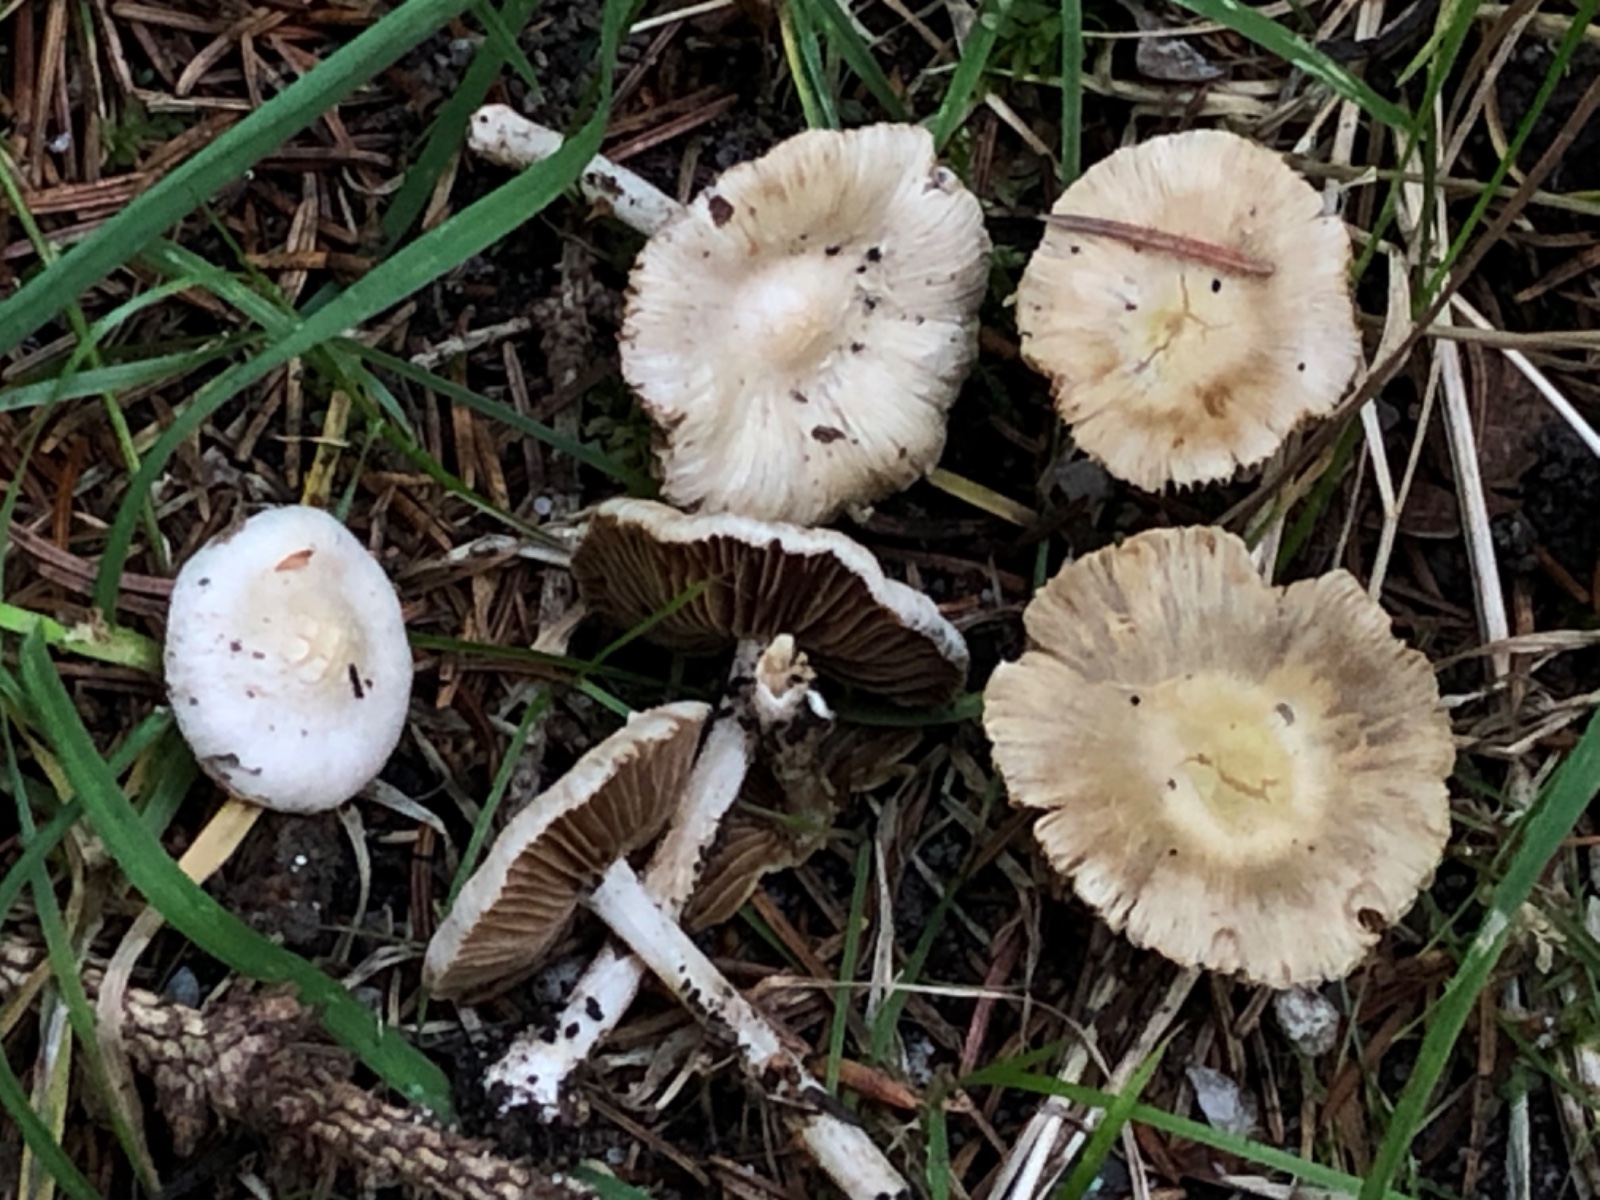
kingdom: Fungi
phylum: Basidiomycota
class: Agaricomycetes
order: Agaricales
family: Inocybaceae
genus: Inocybe
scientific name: Inocybe
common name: trævlhat
